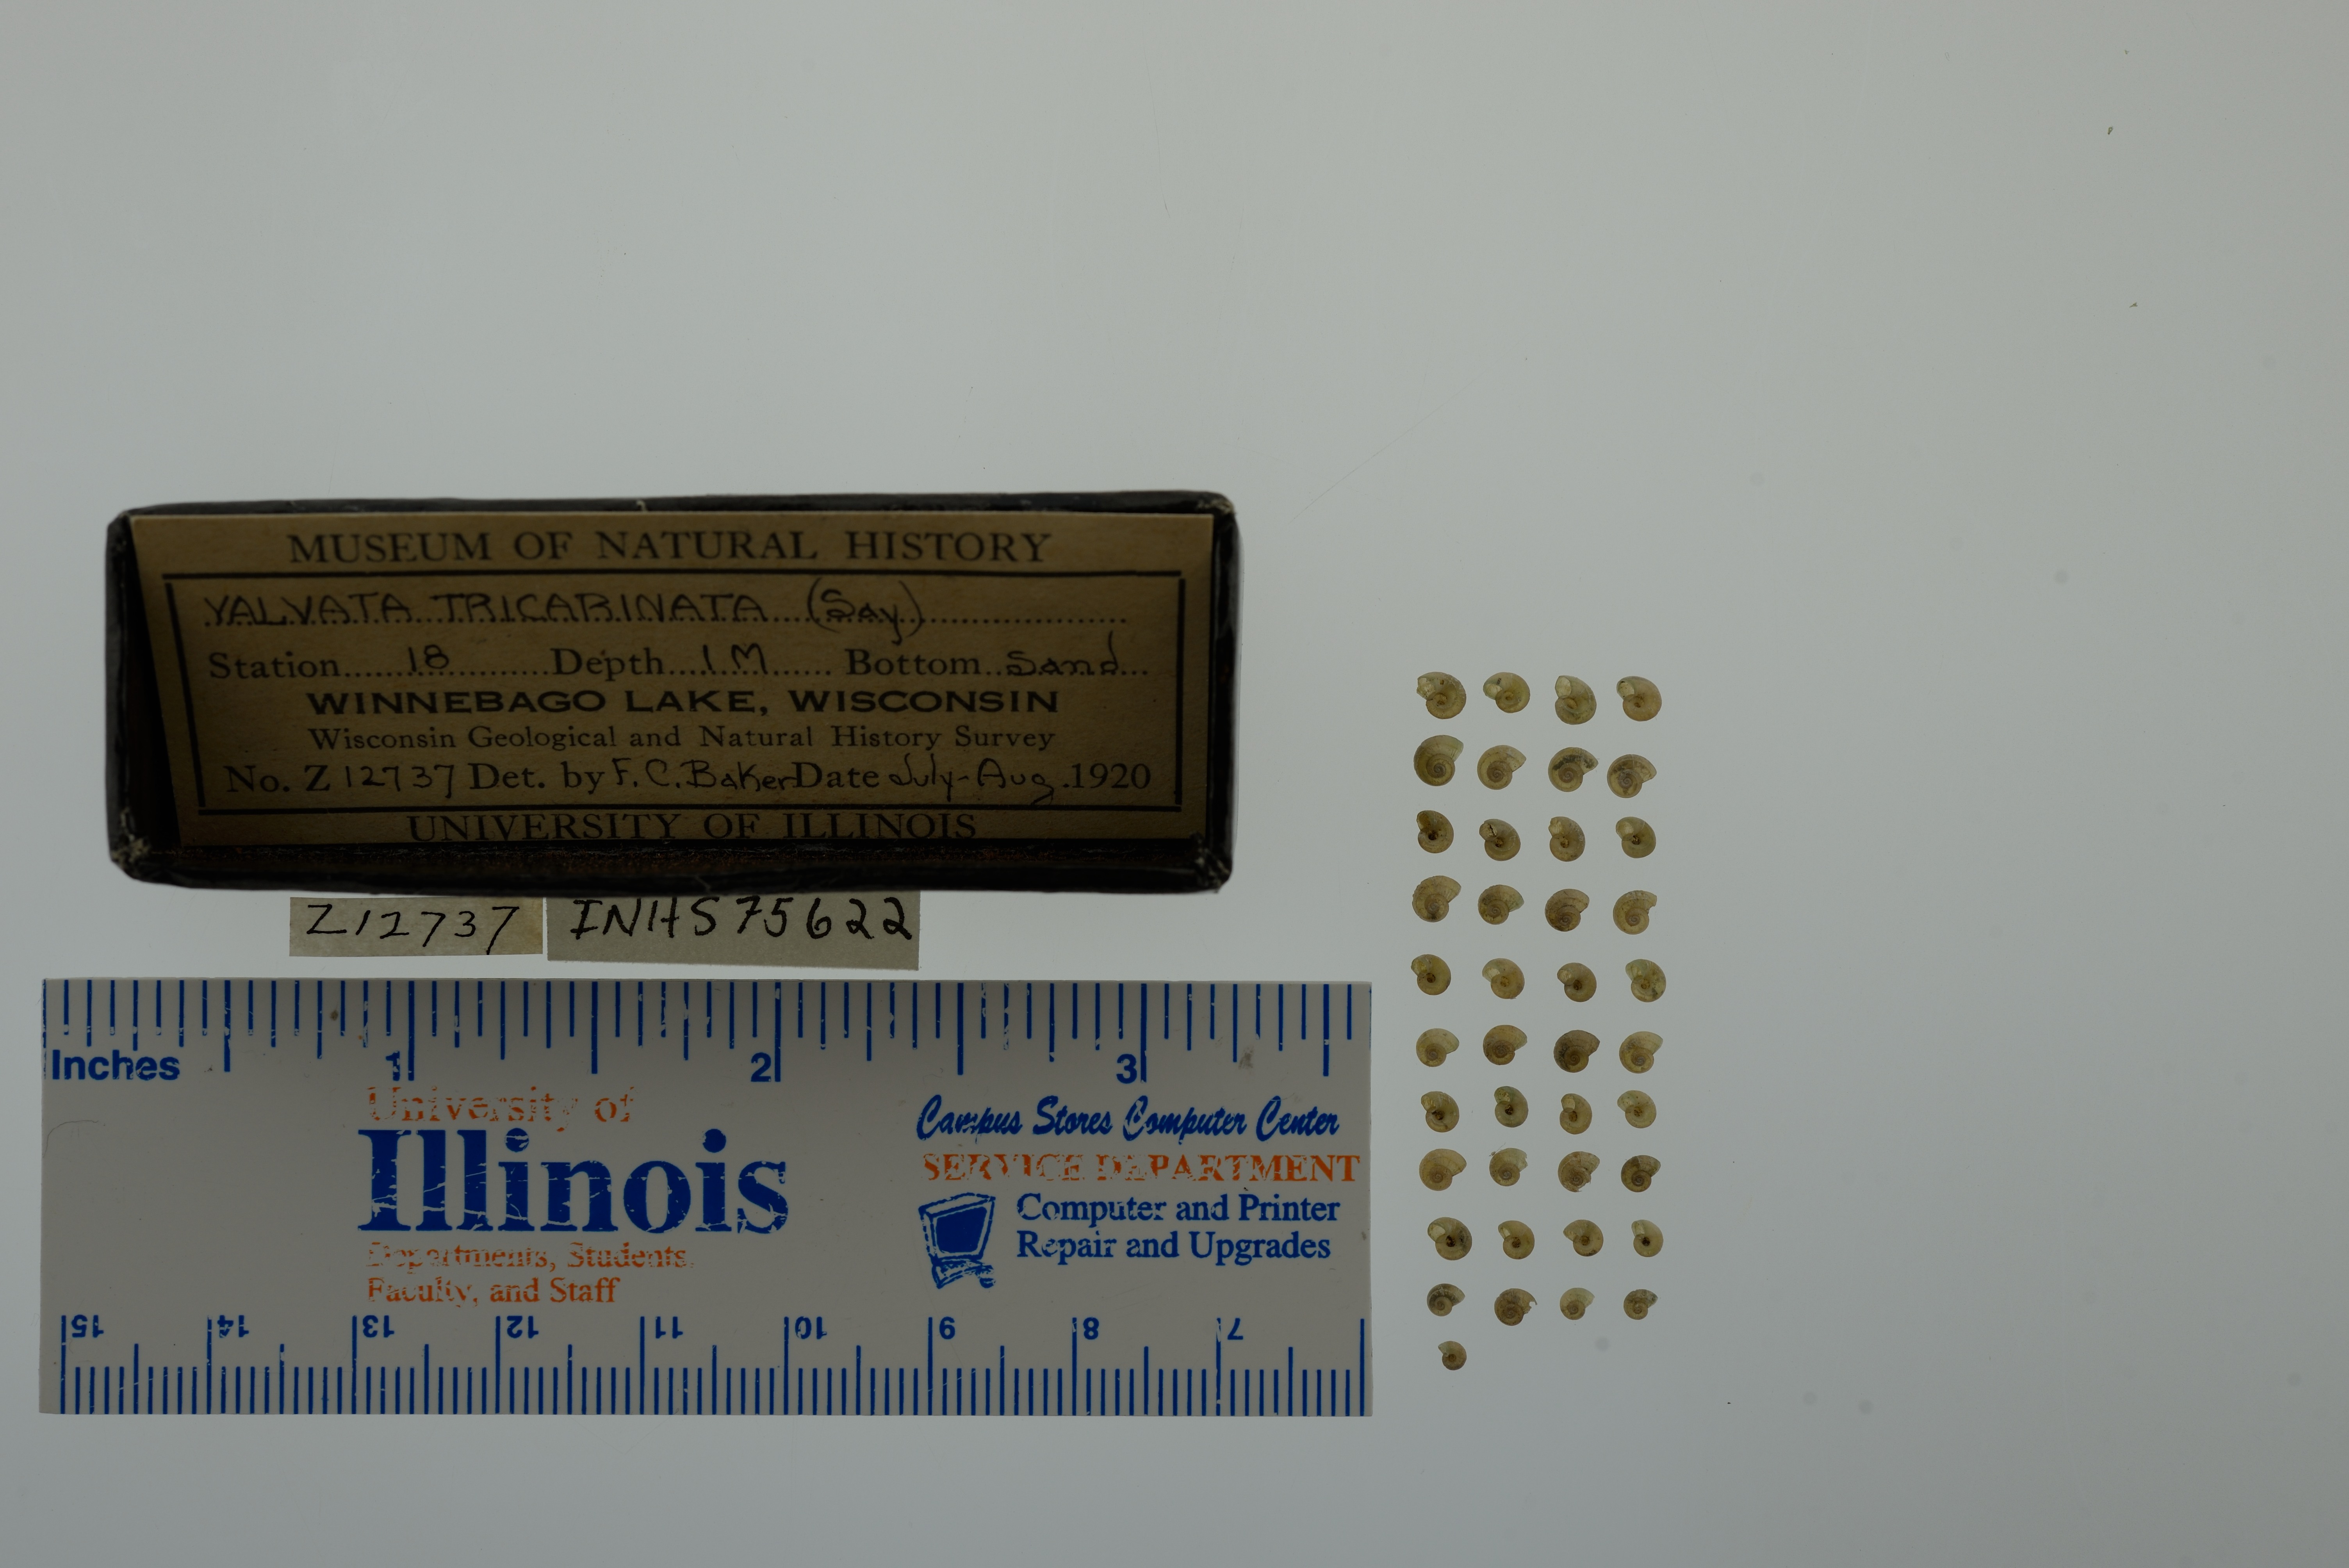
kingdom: Animalia
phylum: Mollusca
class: Gastropoda
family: Valvatidae
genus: Valvata
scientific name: Valvata tricarinata
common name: Three-ridge valvata
